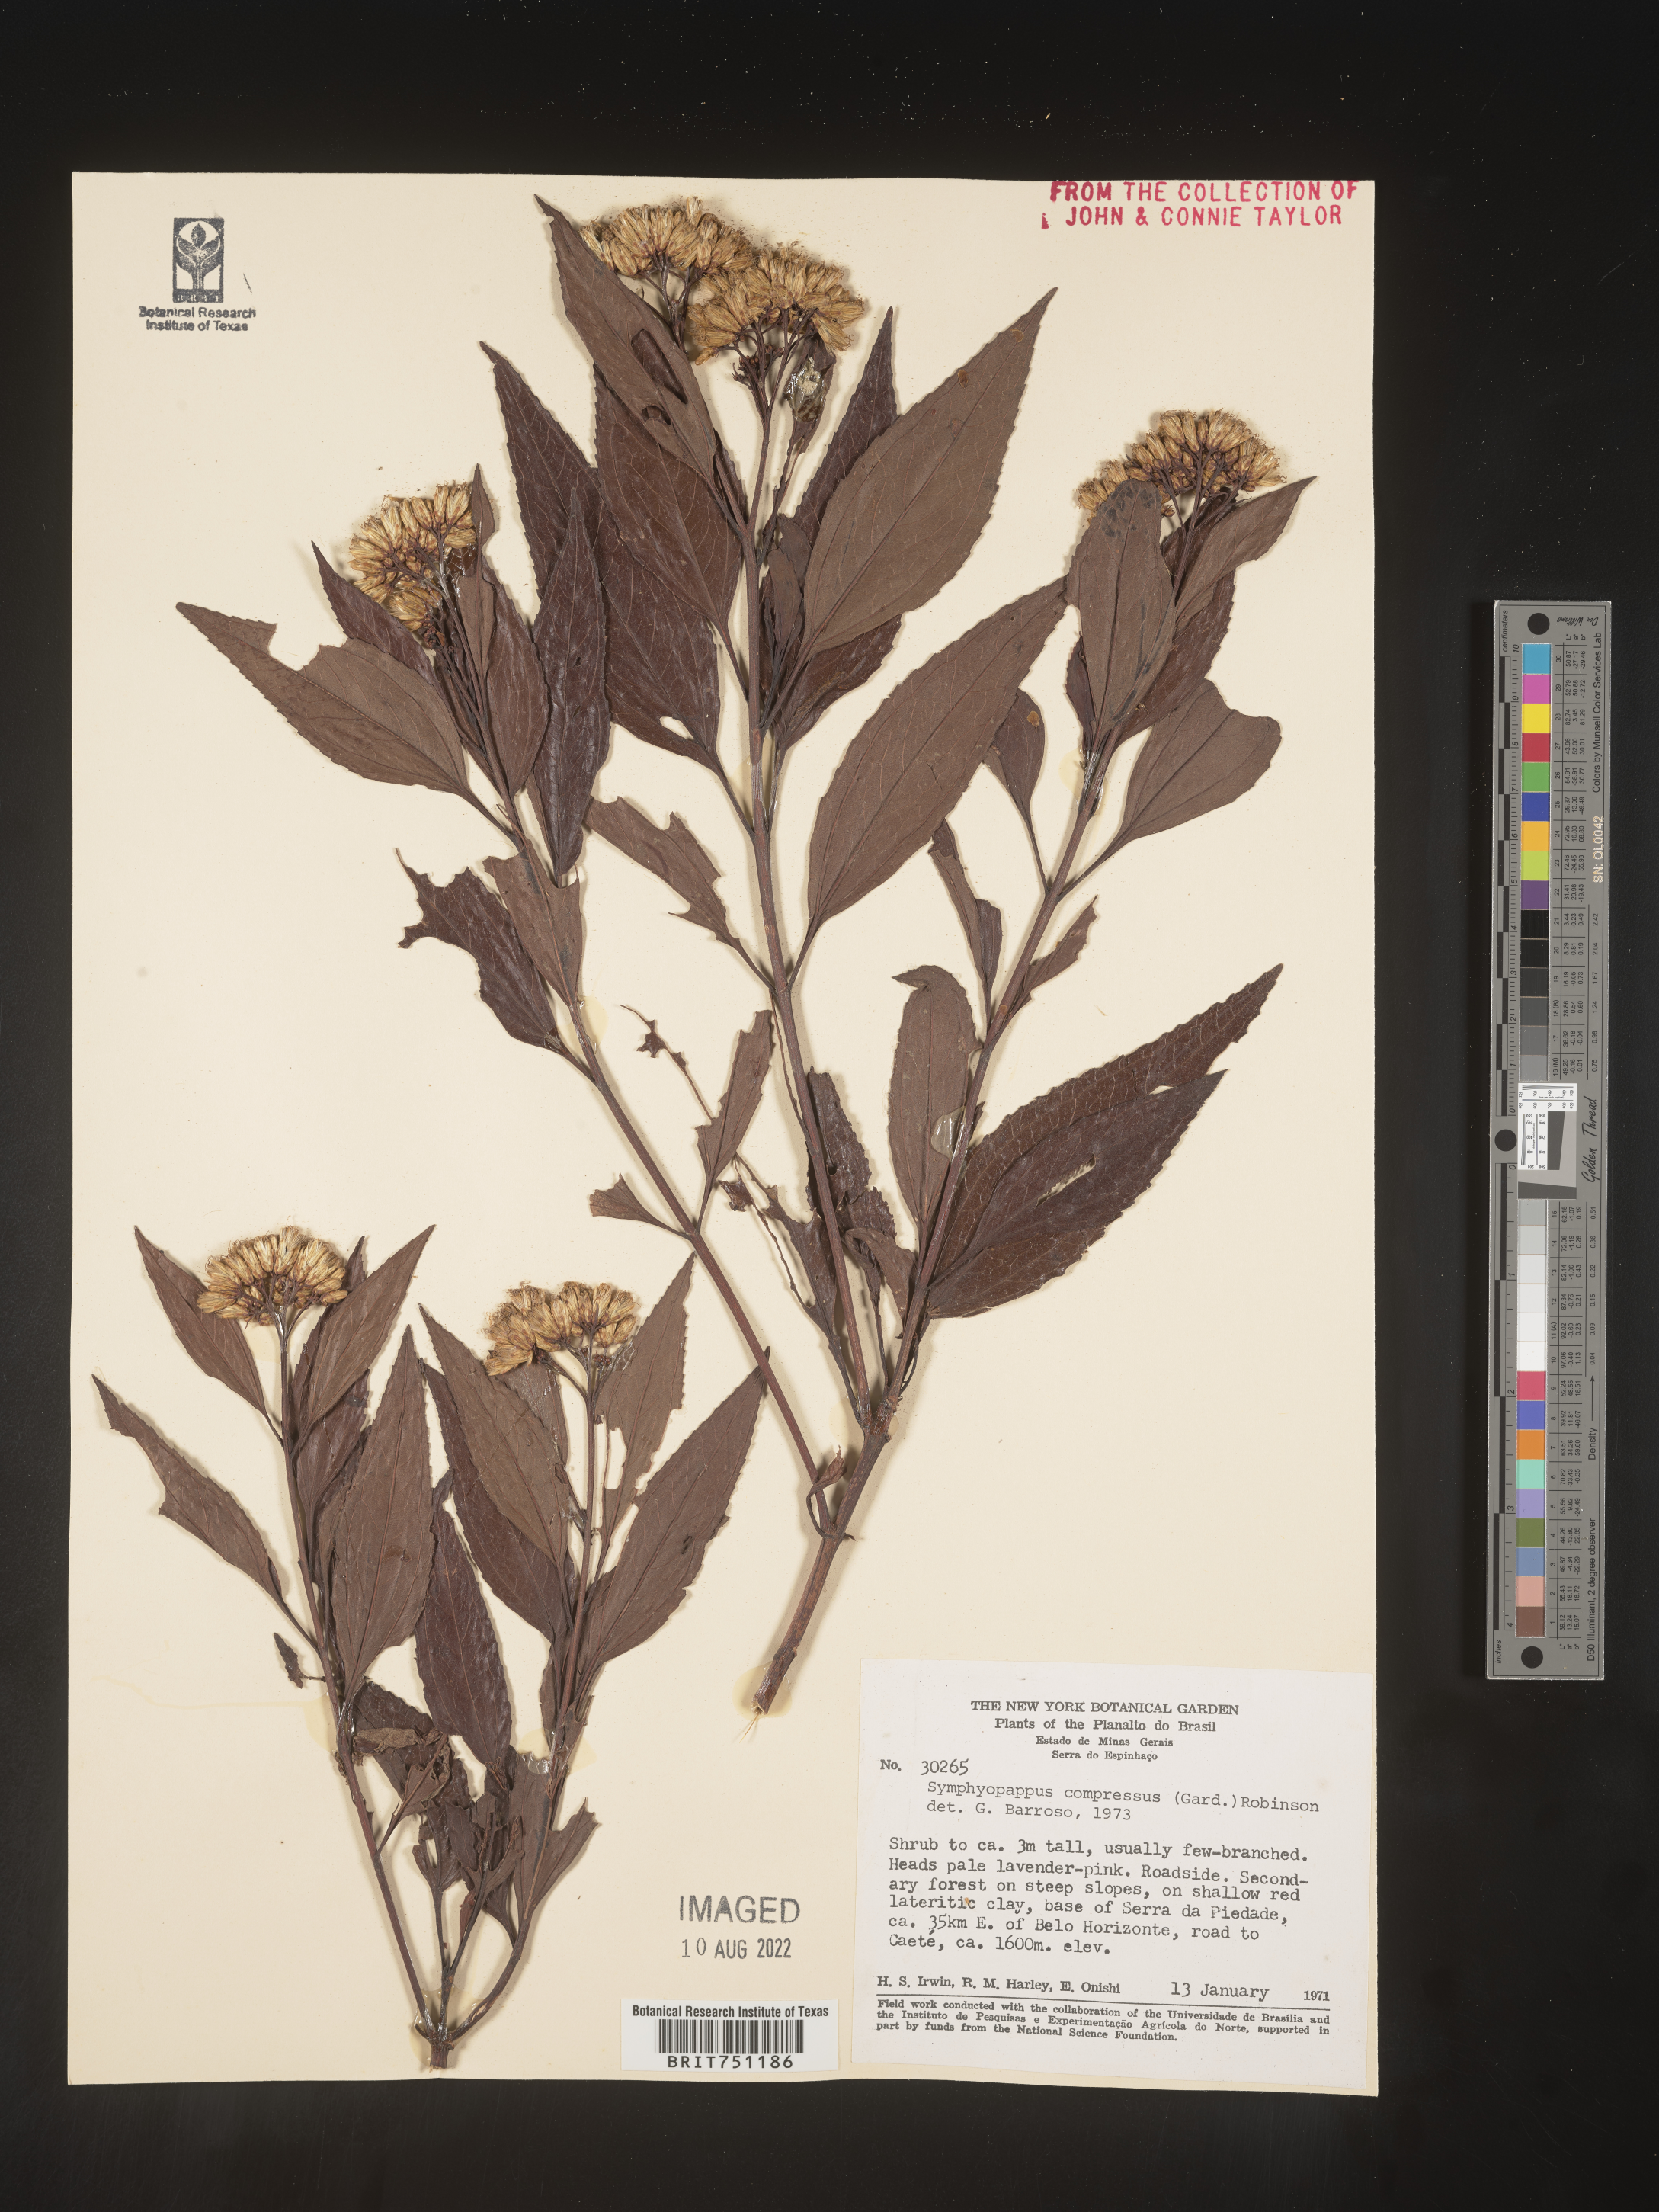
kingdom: Plantae
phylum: Tracheophyta
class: Magnoliopsida
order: Asterales
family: Asteraceae
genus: Symphyopappus
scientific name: Symphyopappus
